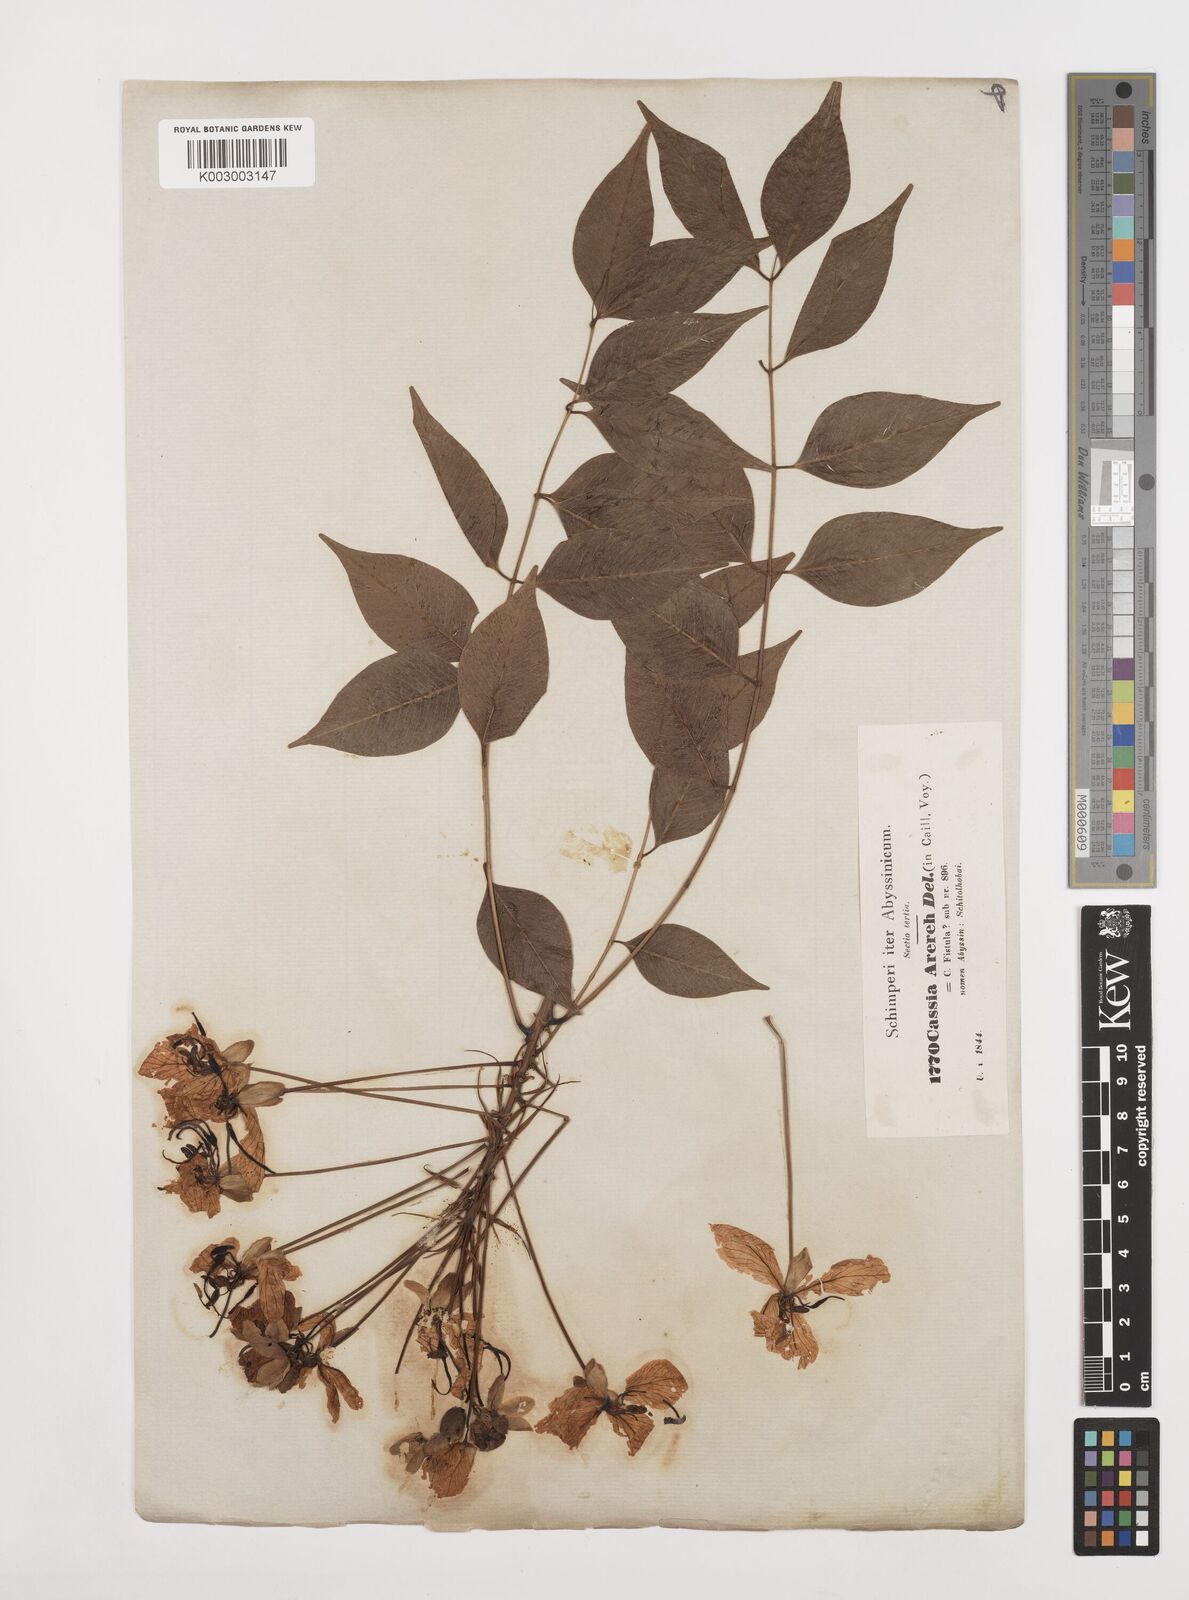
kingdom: Plantae
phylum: Tracheophyta
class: Magnoliopsida
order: Fabales
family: Fabaceae
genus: Cassia
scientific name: Cassia arereh
